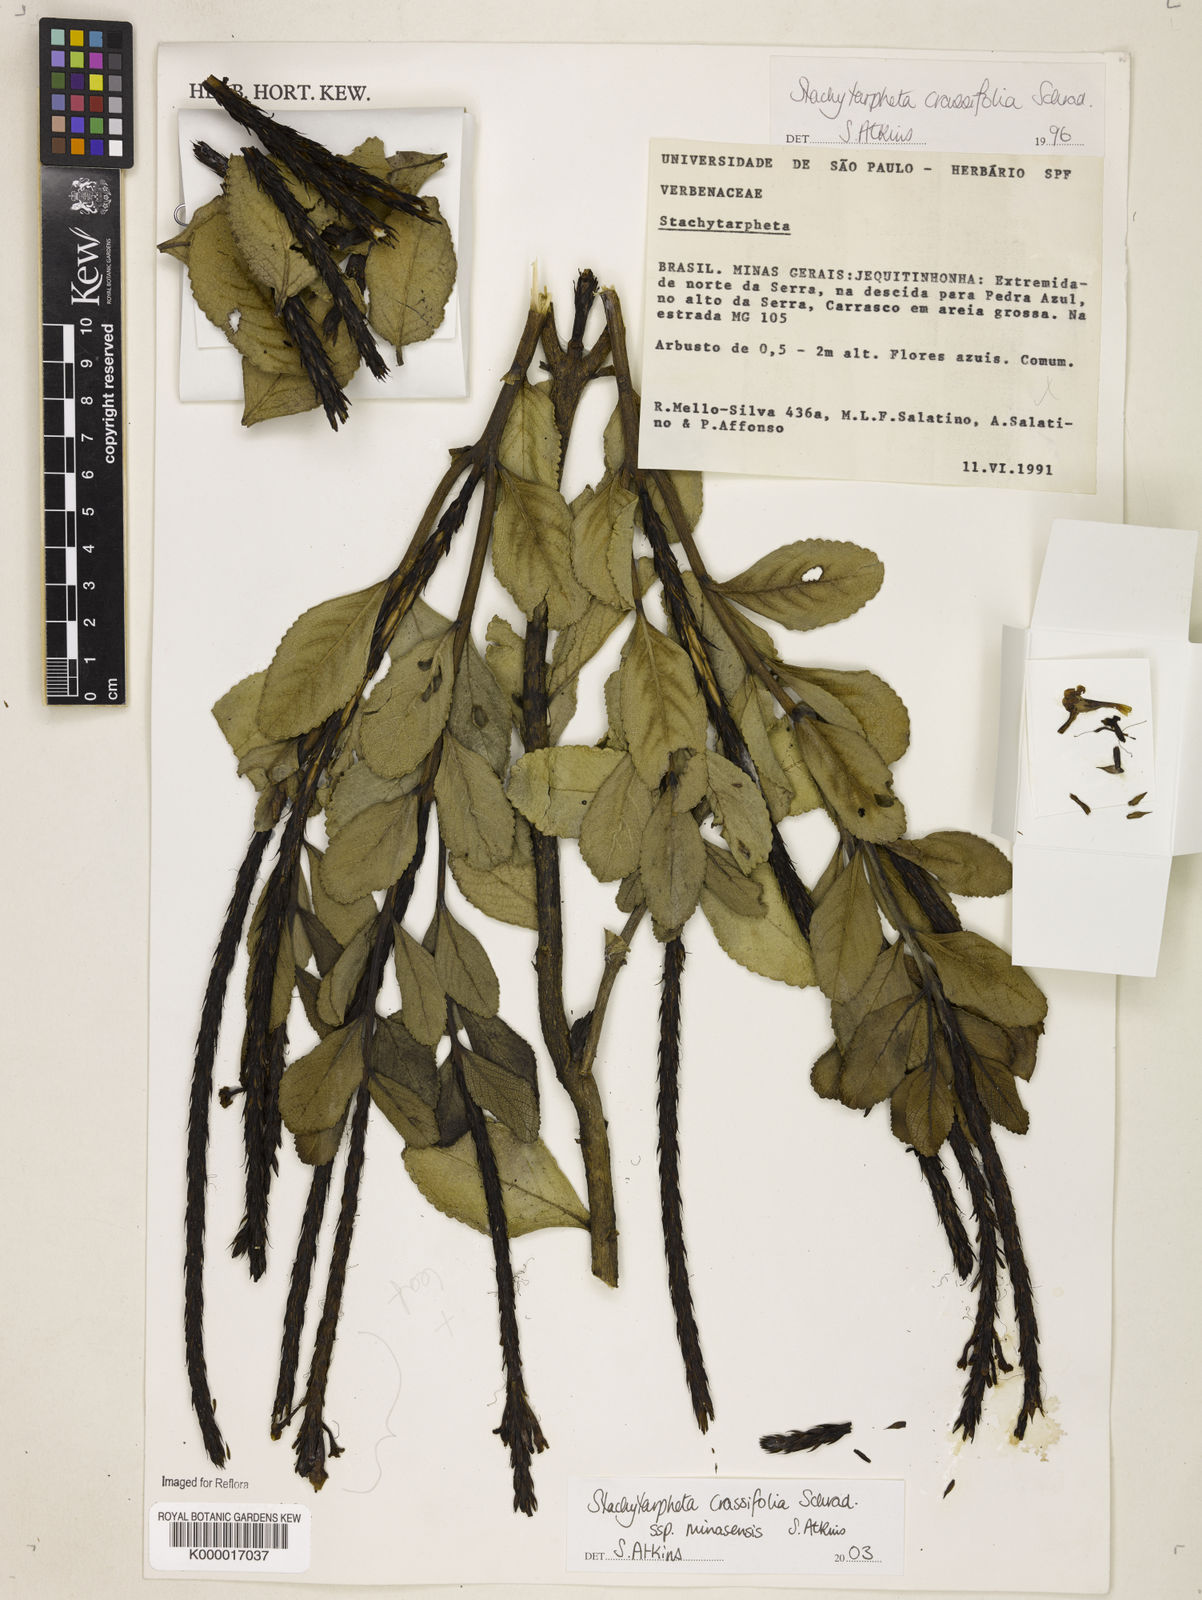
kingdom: Plantae
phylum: Tracheophyta
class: Magnoliopsida
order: Lamiales
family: Verbenaceae
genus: Stachytarpheta
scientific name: Stachytarpheta crassifolia
